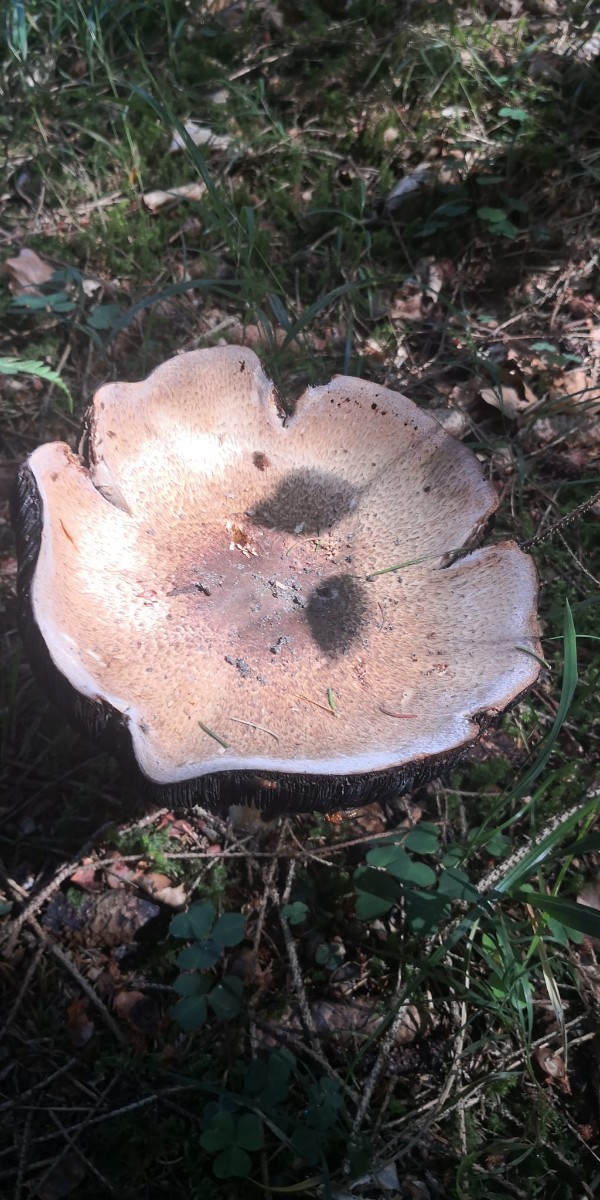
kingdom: Fungi
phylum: Basidiomycota
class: Agaricomycetes
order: Agaricales
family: Agaricaceae
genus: Agaricus
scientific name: Agaricus augustus
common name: prægtig champignon
